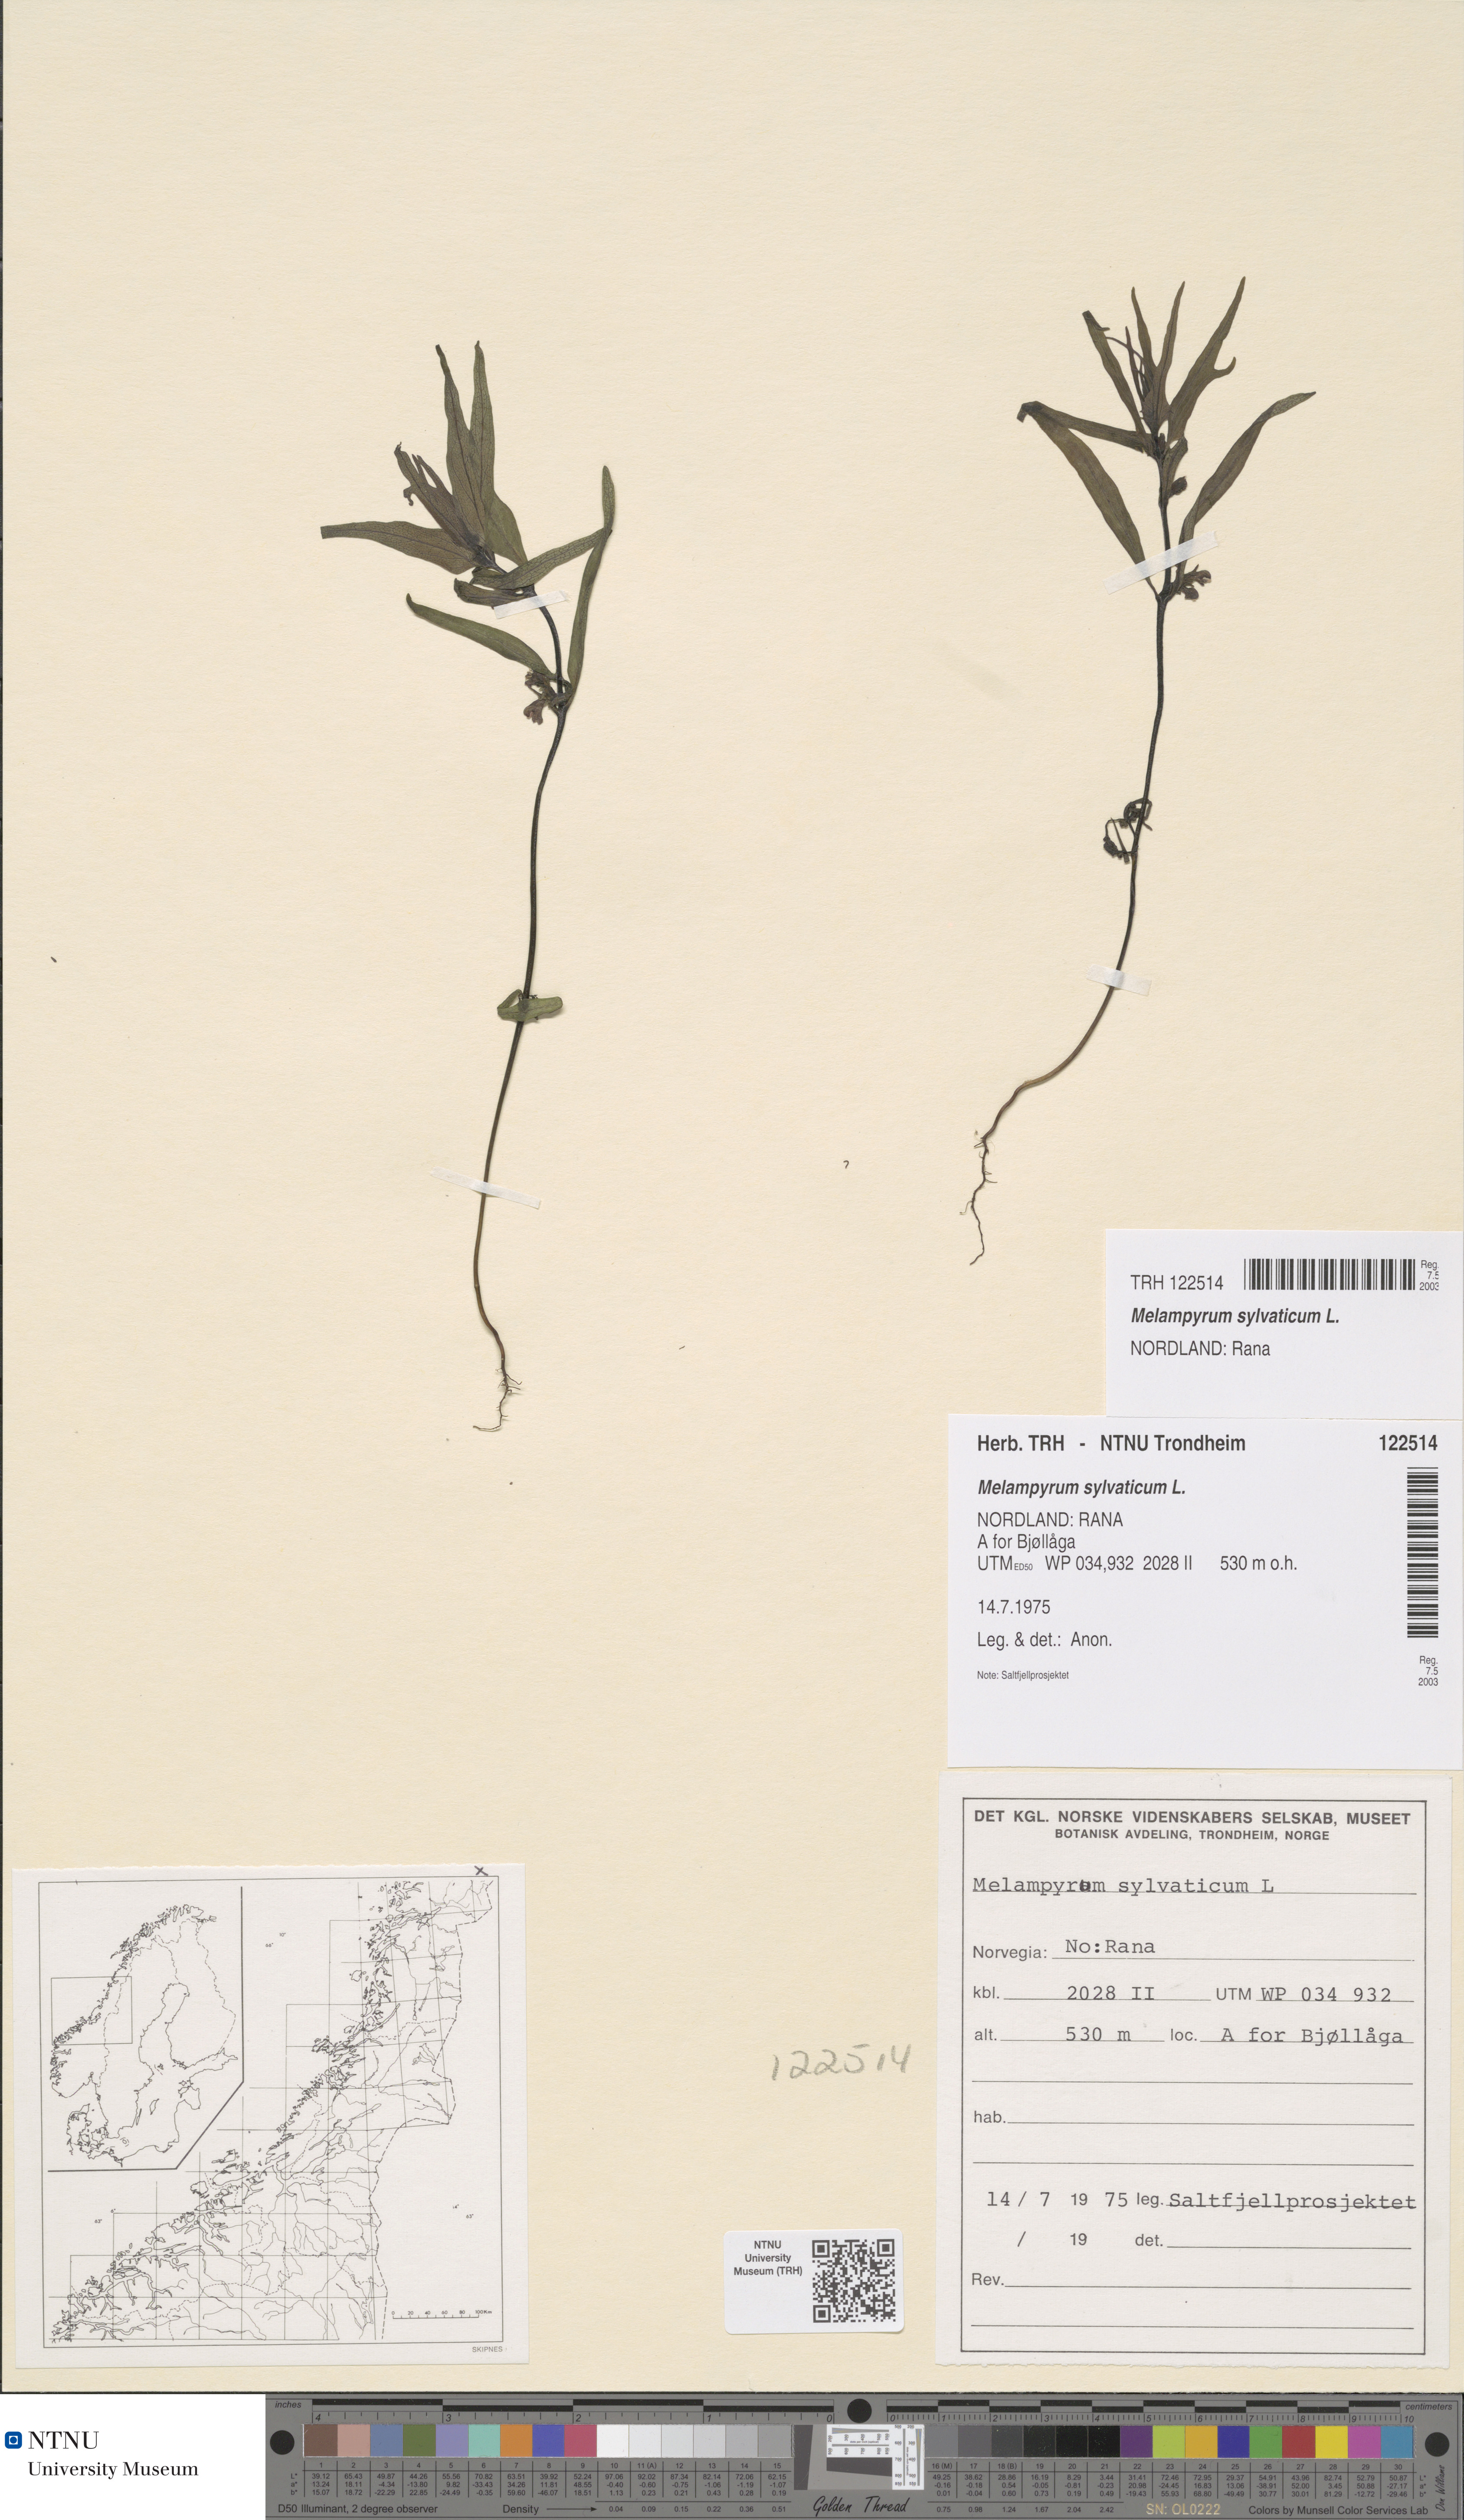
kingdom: Plantae
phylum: Tracheophyta
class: Magnoliopsida
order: Lamiales
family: Orobanchaceae
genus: Melampyrum
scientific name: Melampyrum sylvaticum
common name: Small cow-wheat
